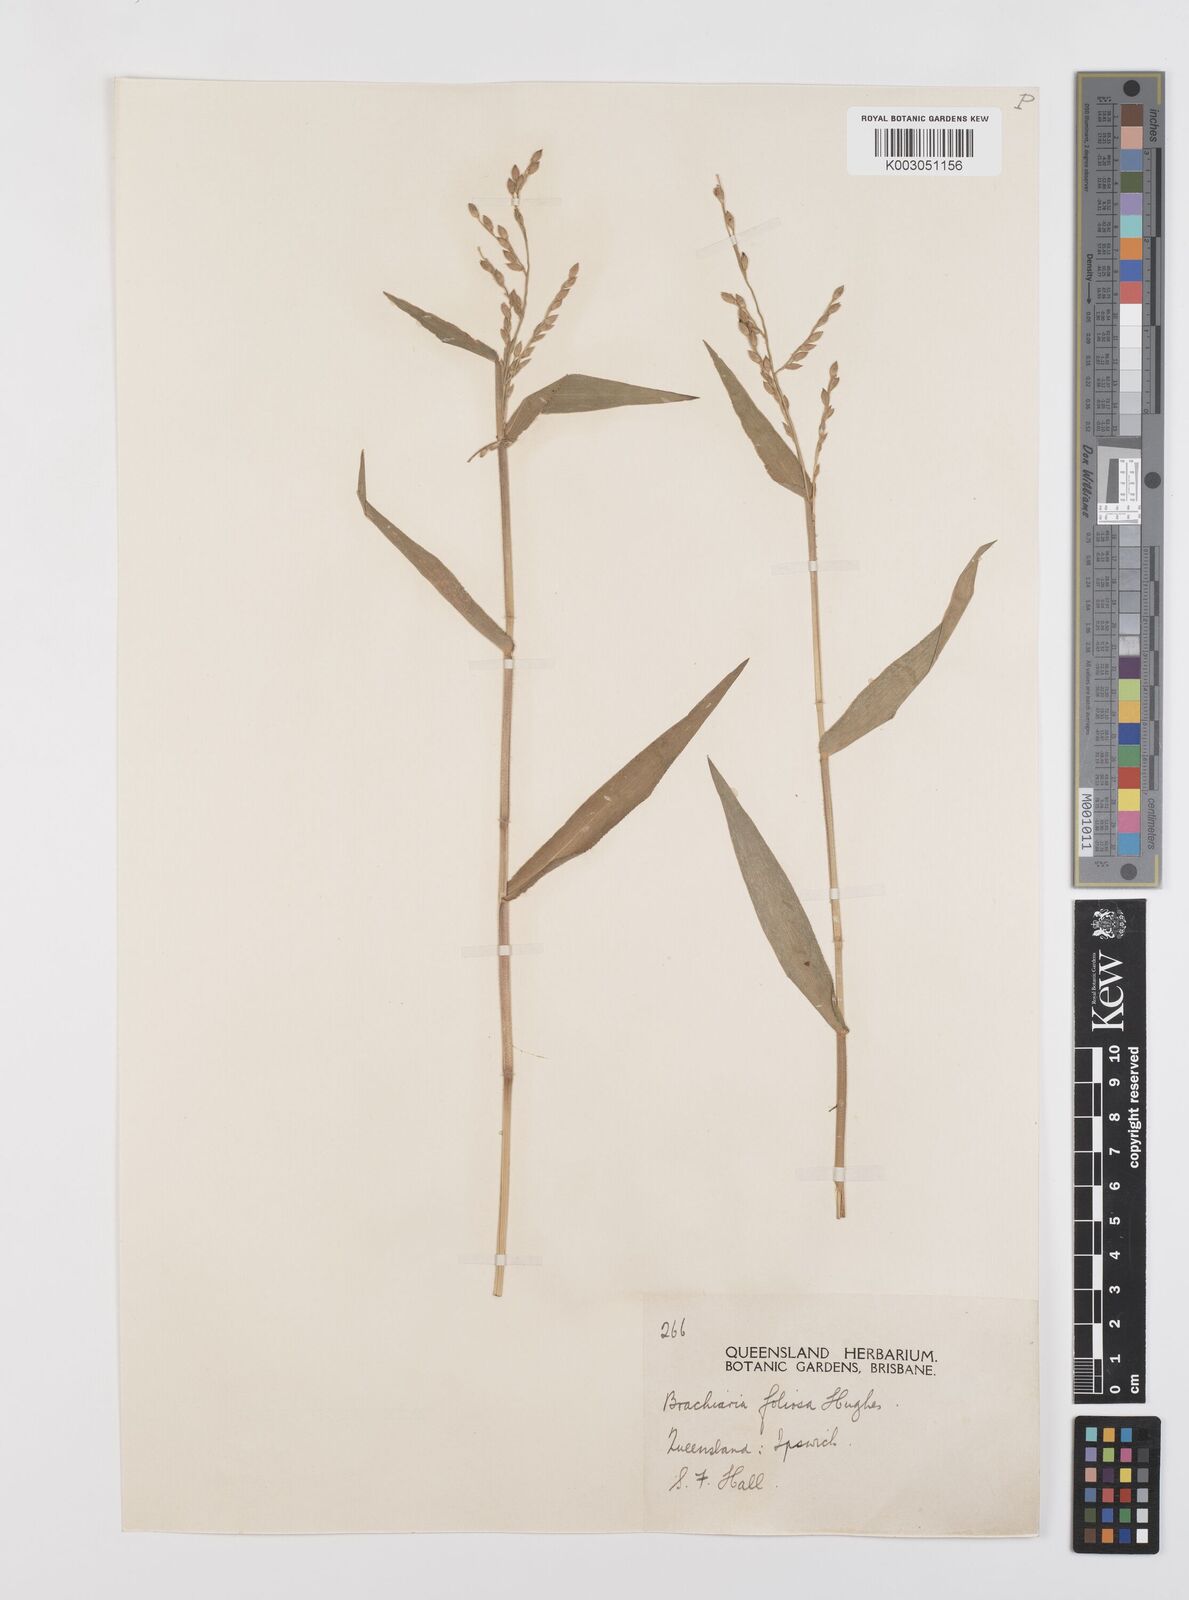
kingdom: Plantae
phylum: Tracheophyta
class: Liliopsida
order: Poales
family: Poaceae
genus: Urochloa
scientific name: Urochloa foliosa
